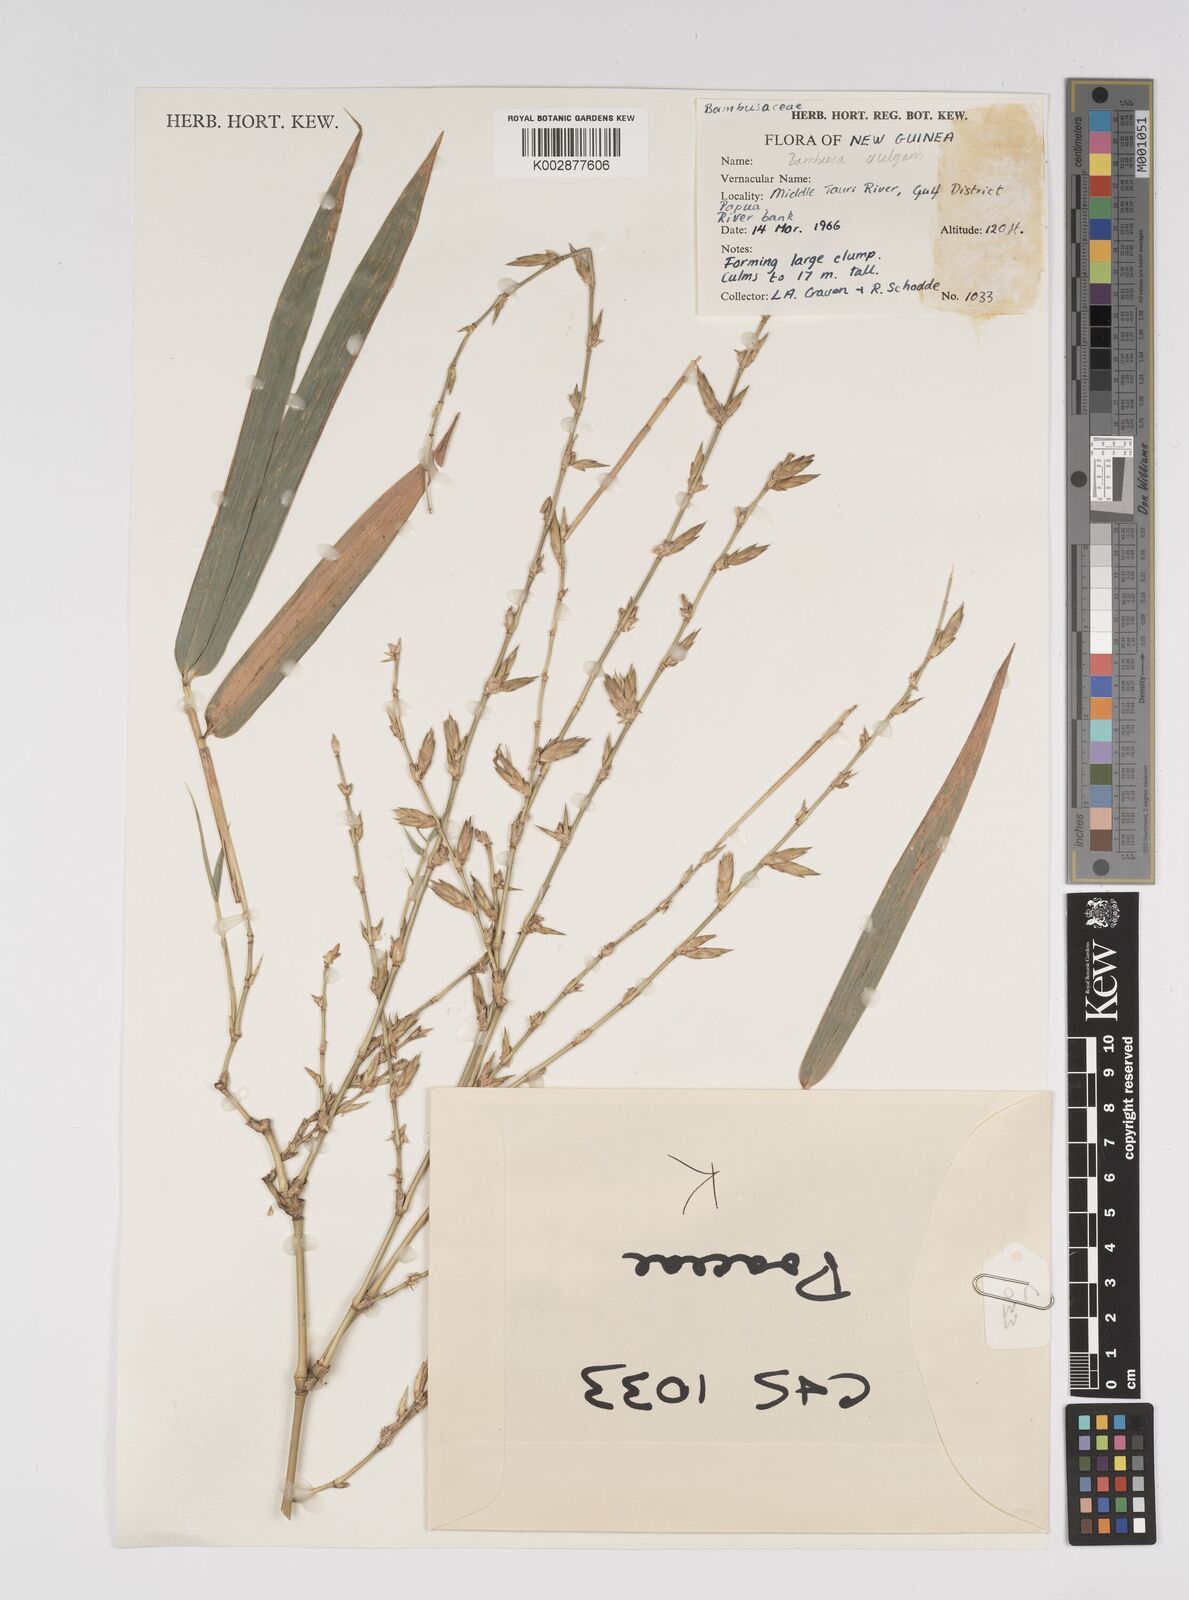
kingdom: Plantae
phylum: Tracheophyta
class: Liliopsida
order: Poales
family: Poaceae
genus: Bambusa
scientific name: Bambusa balcooa
